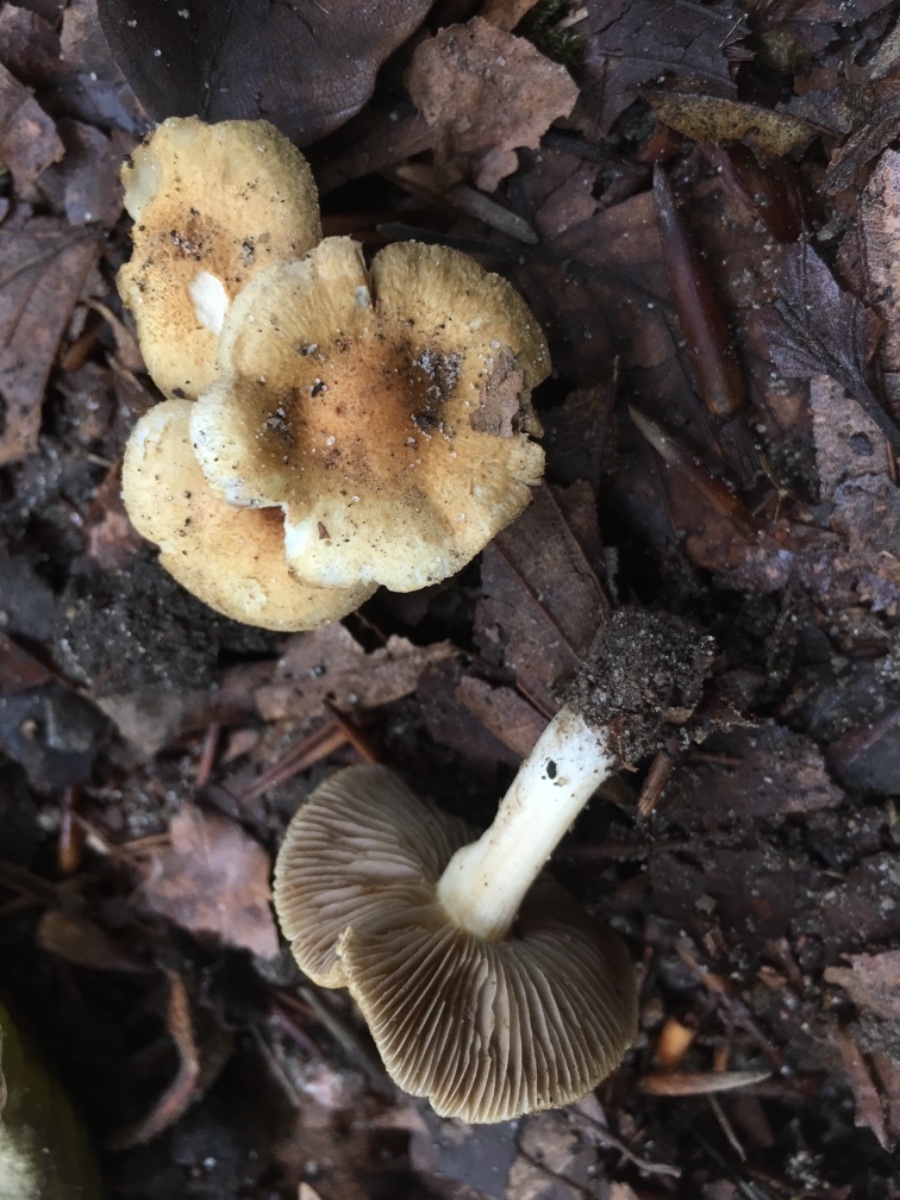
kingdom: Fungi
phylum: Basidiomycota
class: Agaricomycetes
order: Agaricales
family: Inocybaceae
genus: Inocybe
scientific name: Inocybe
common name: trævlhat
